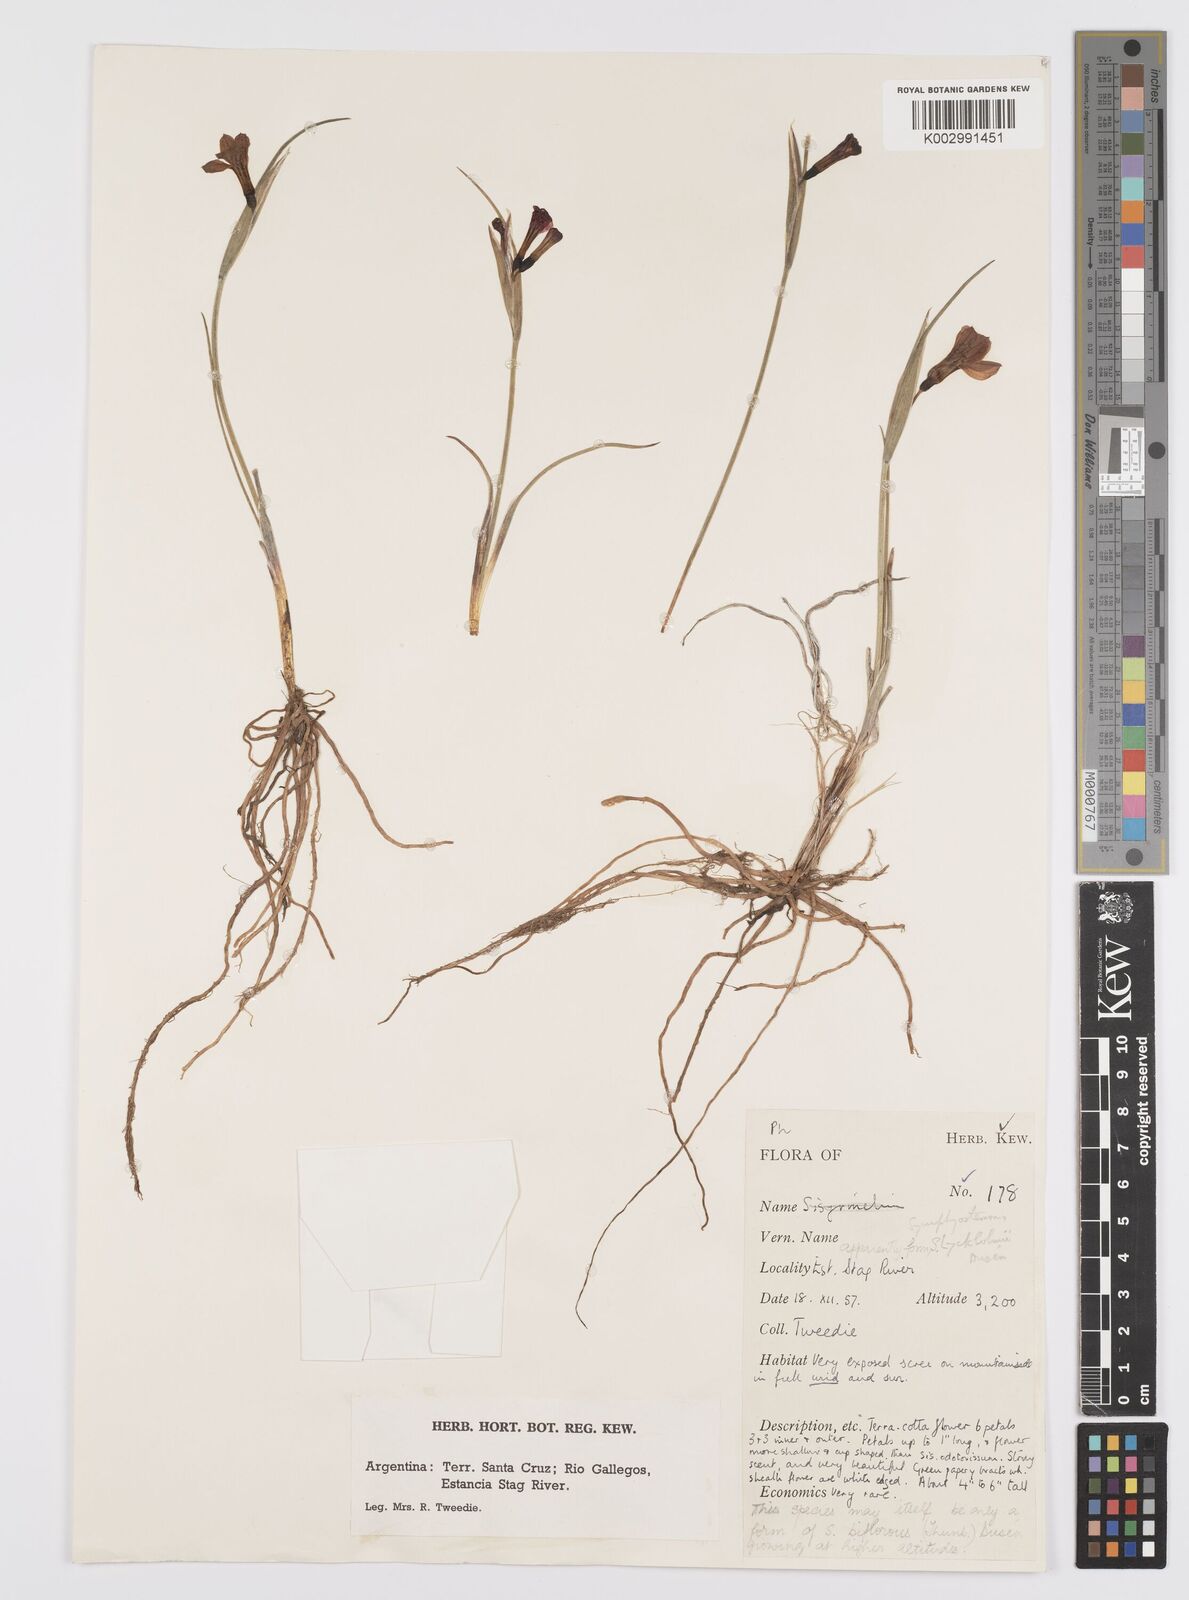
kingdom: Plantae
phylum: Tracheophyta
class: Liliopsida
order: Asparagales
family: Iridaceae
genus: Olsynium
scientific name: Olsynium lyckholmii
